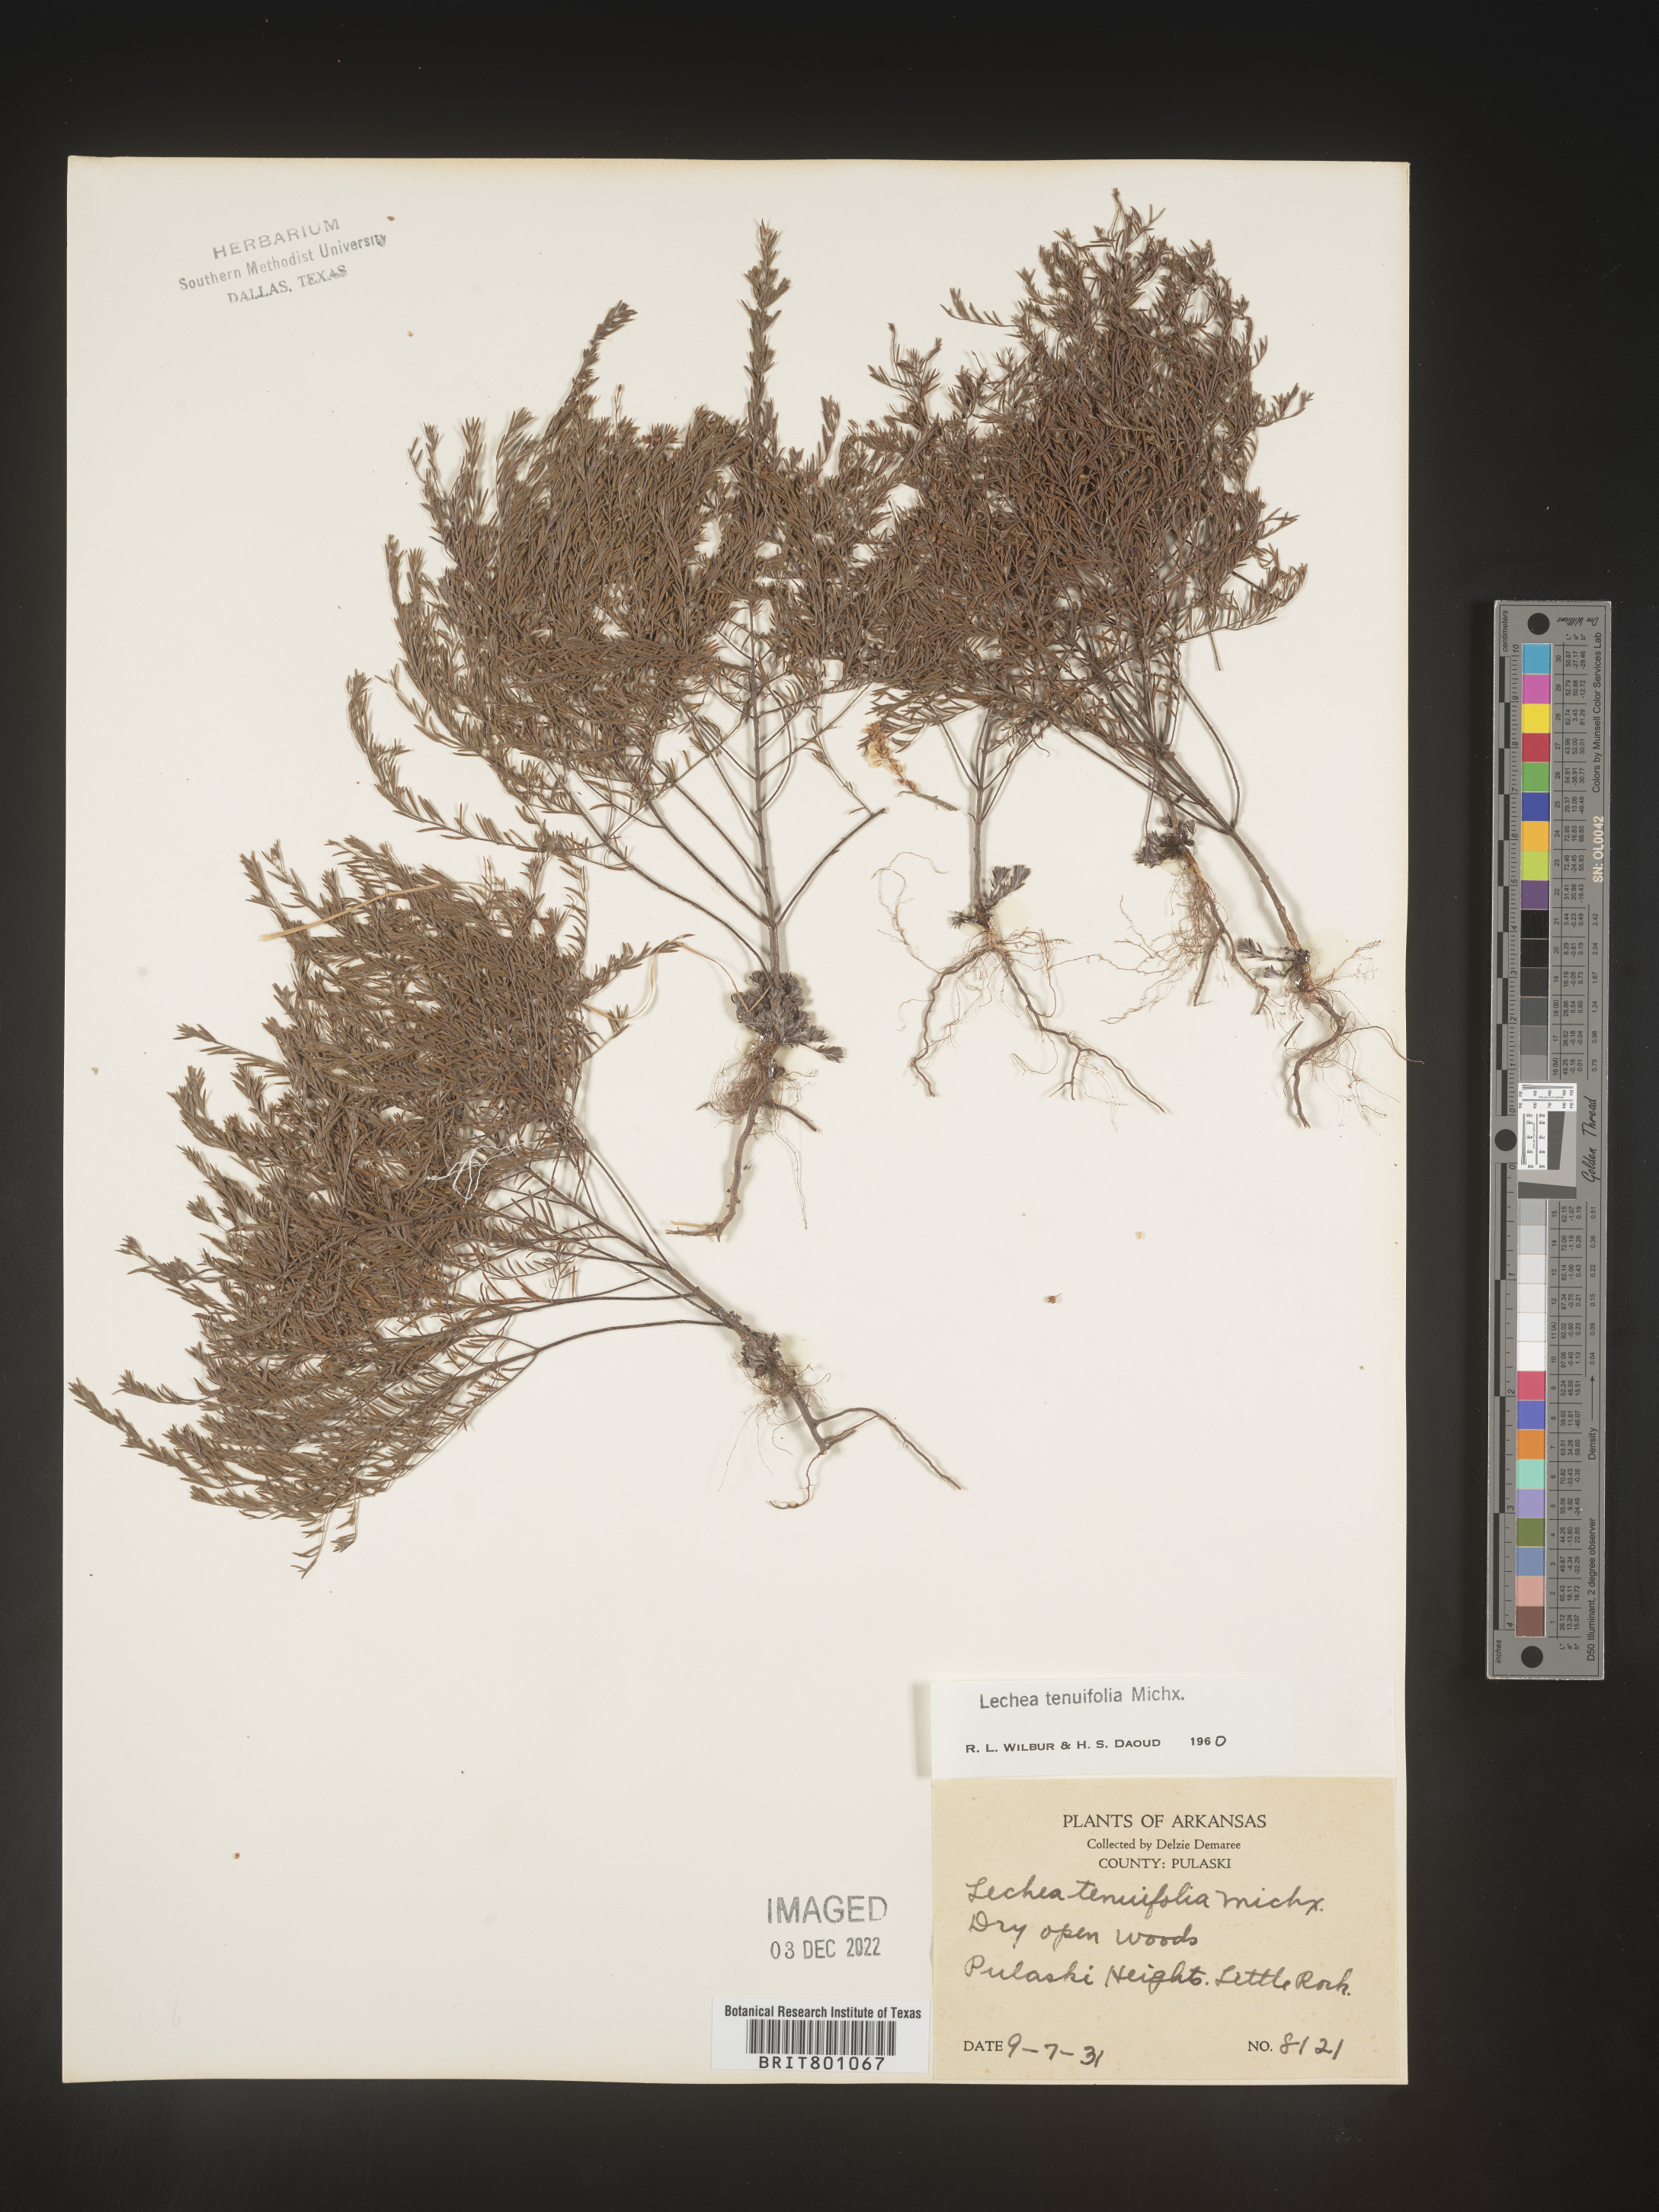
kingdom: Plantae
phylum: Tracheophyta
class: Magnoliopsida
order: Malvales
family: Cistaceae
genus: Lechea
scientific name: Lechea tenuifolia
